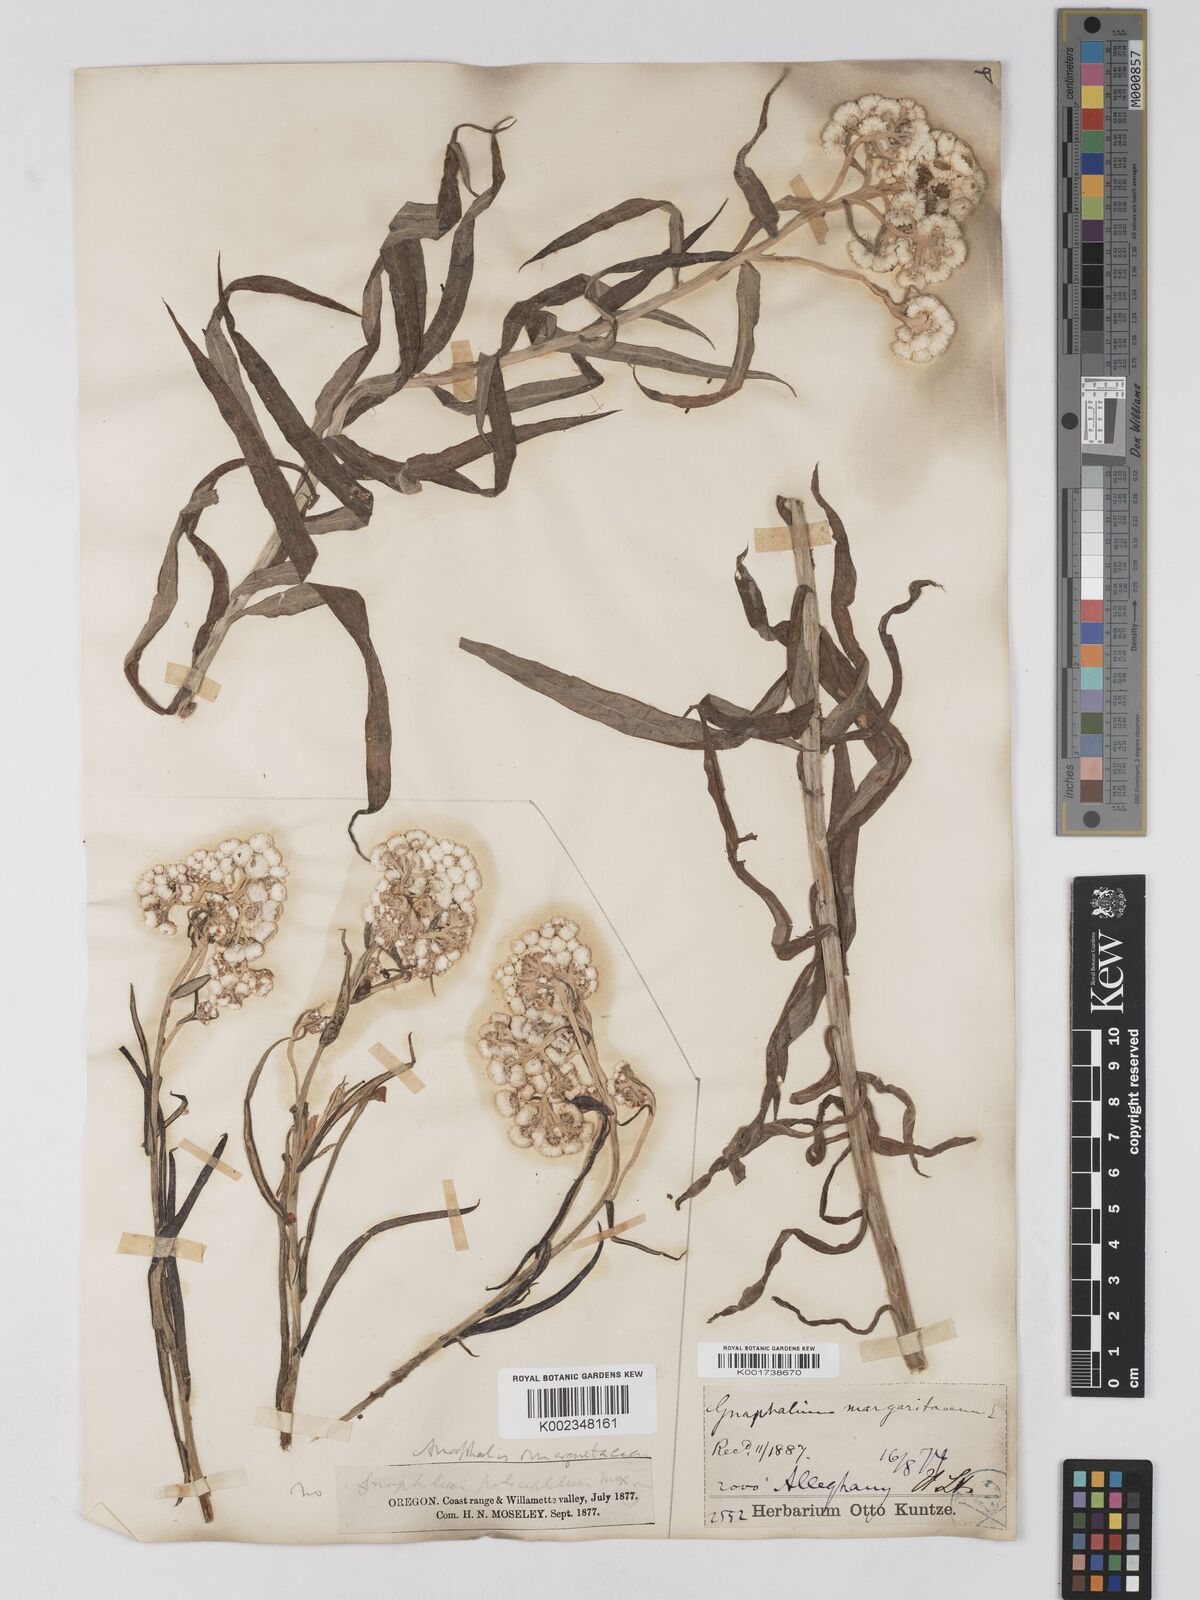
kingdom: Plantae
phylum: Tracheophyta
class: Magnoliopsida
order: Asterales
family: Asteraceae
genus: Anaphalis
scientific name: Anaphalis margaritacea
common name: Pearly everlasting
